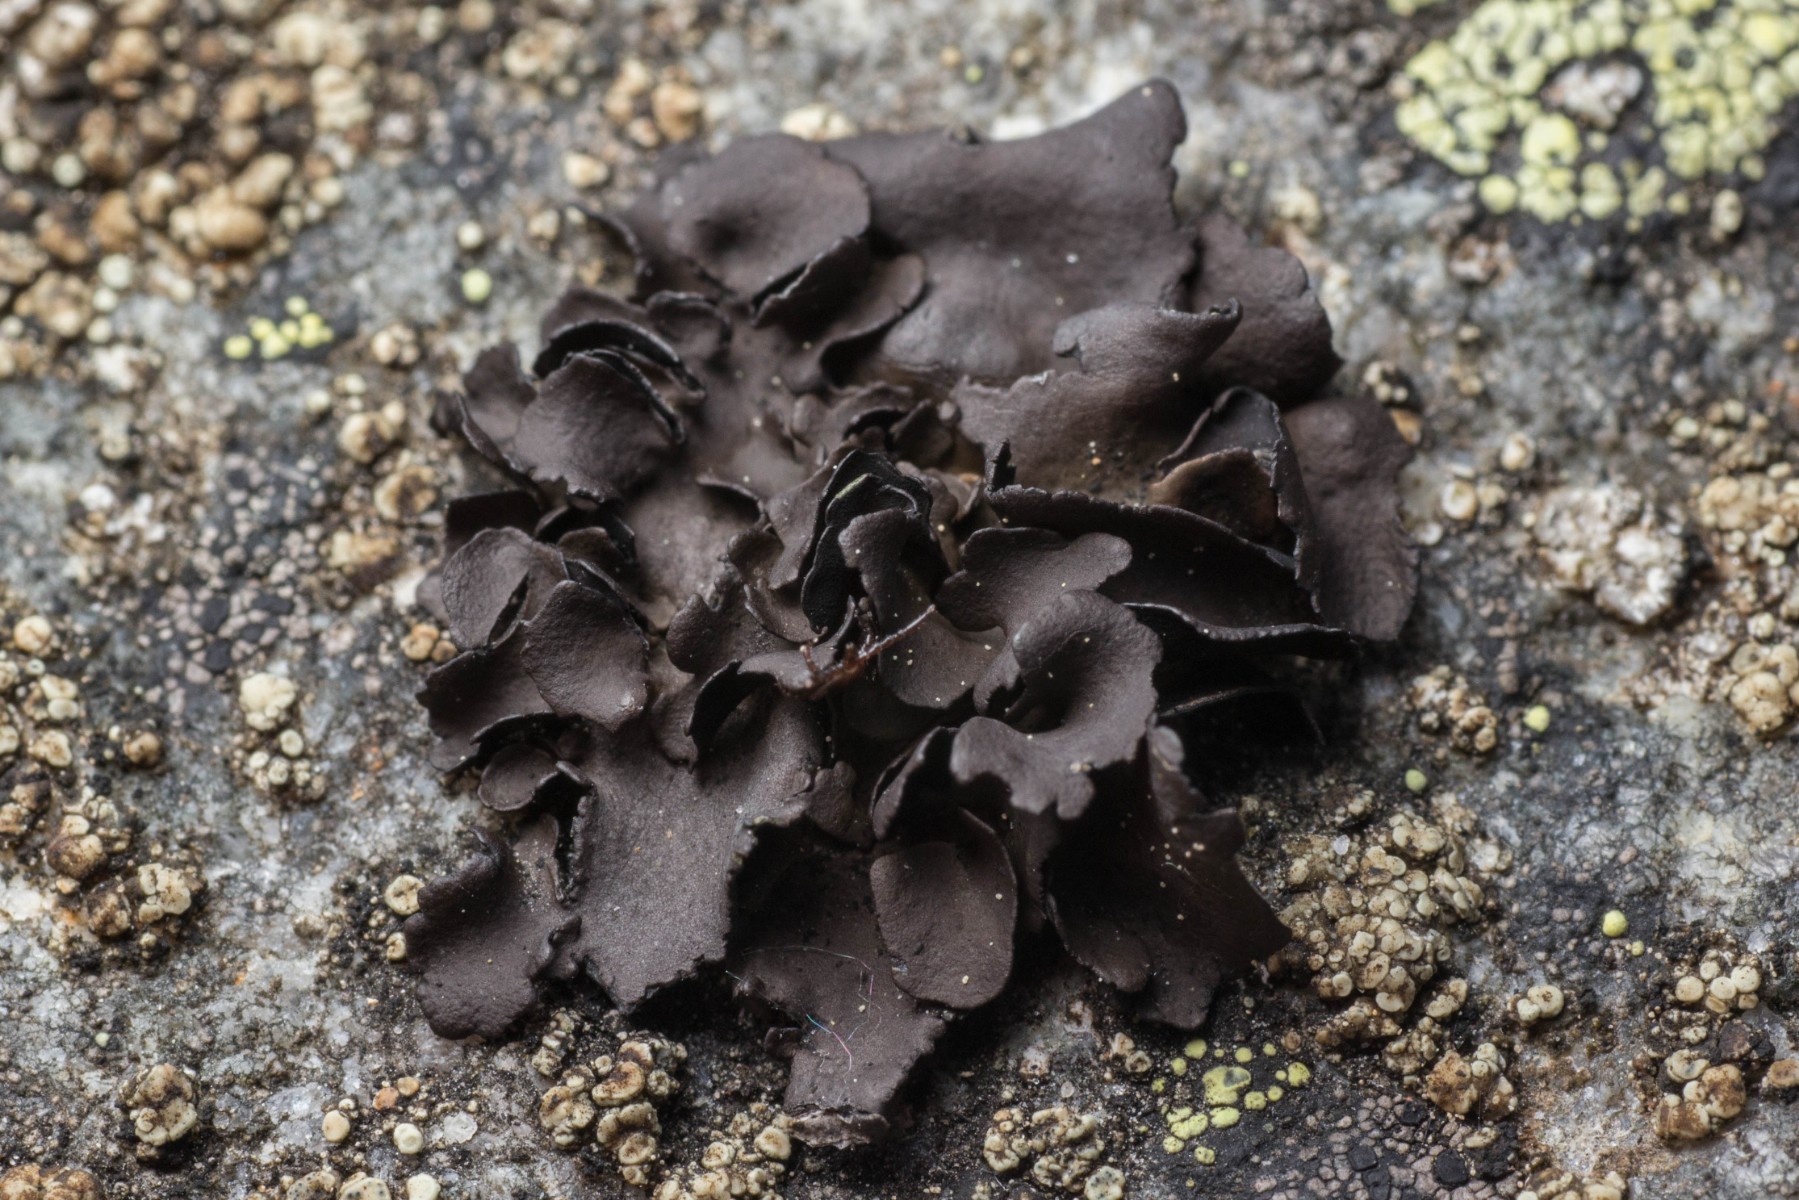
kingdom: Fungi
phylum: Ascomycota
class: Lecanoromycetes
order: Umbilicariales
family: Umbilicariaceae
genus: Umbilicaria
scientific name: Umbilicaria polyphylla
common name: glat navlelav
